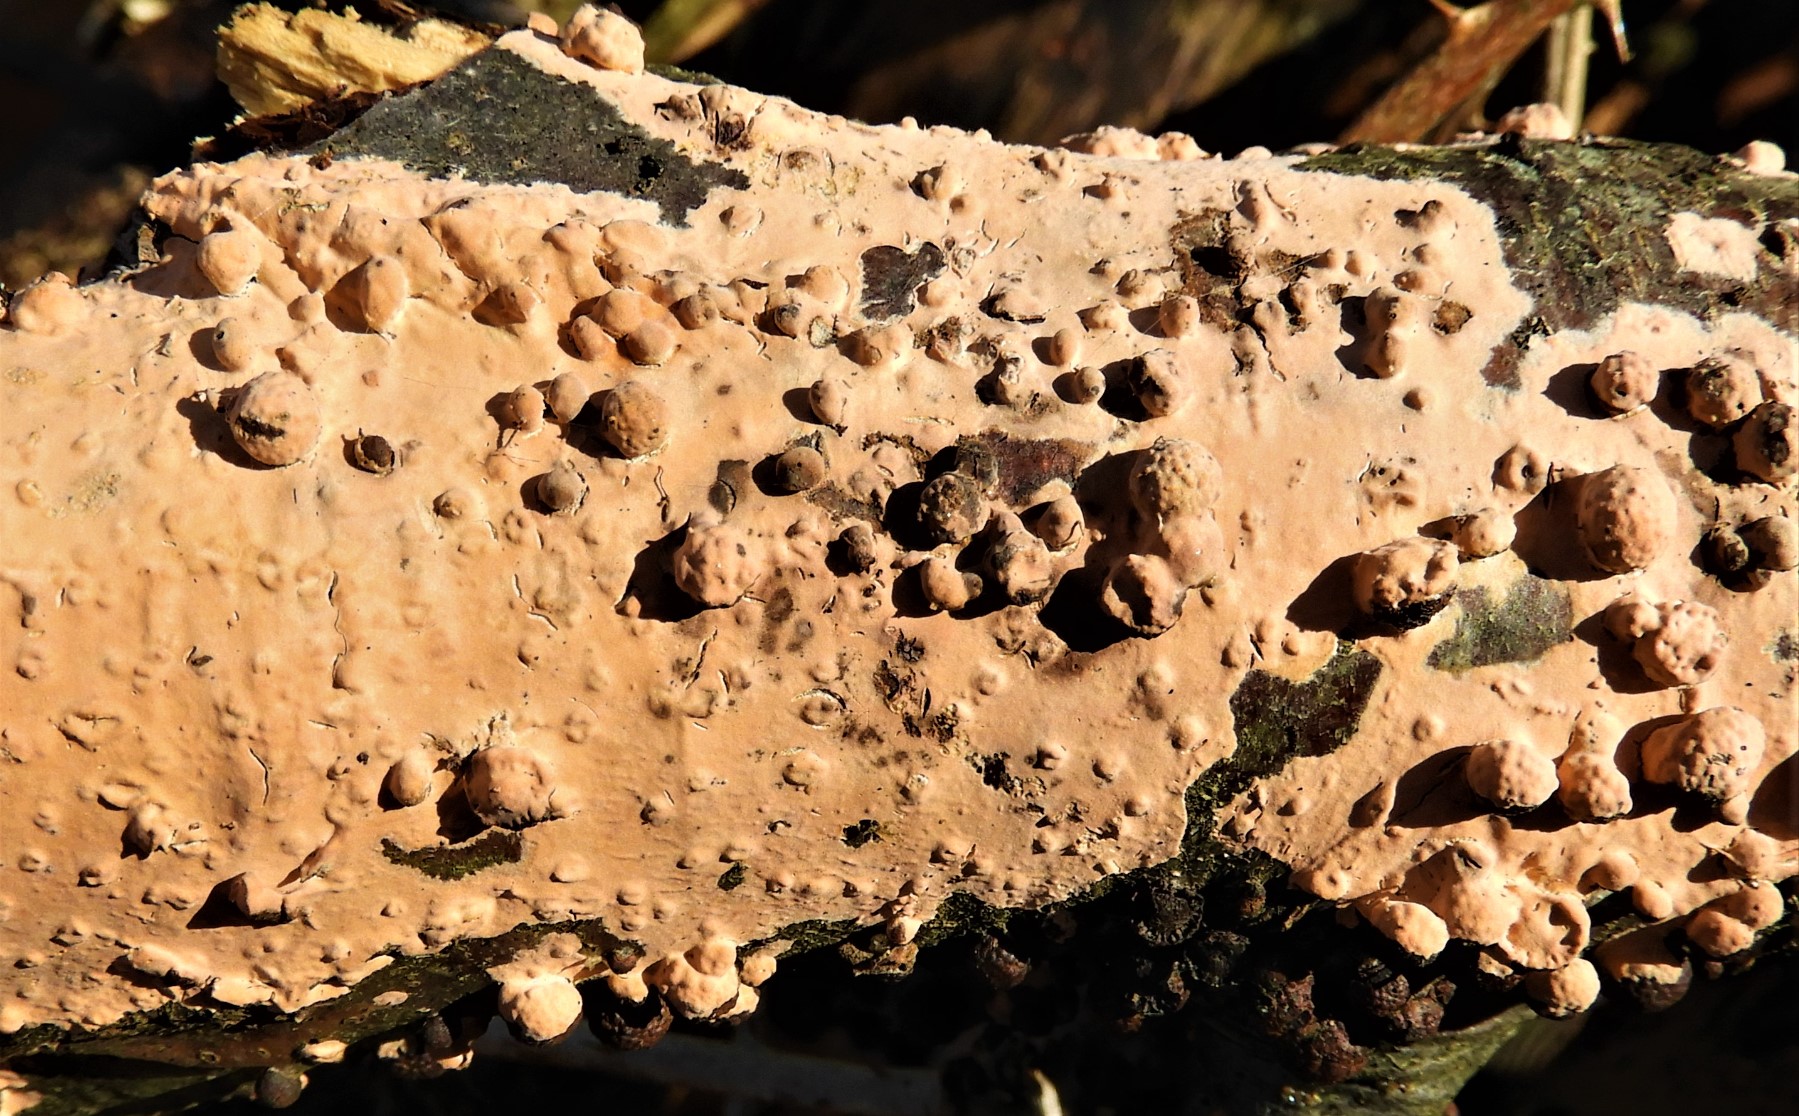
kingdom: Fungi
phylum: Basidiomycota
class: Agaricomycetes
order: Russulales
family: Peniophoraceae
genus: Peniophora
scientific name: Peniophora incarnata
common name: laksefarvet voksskind
